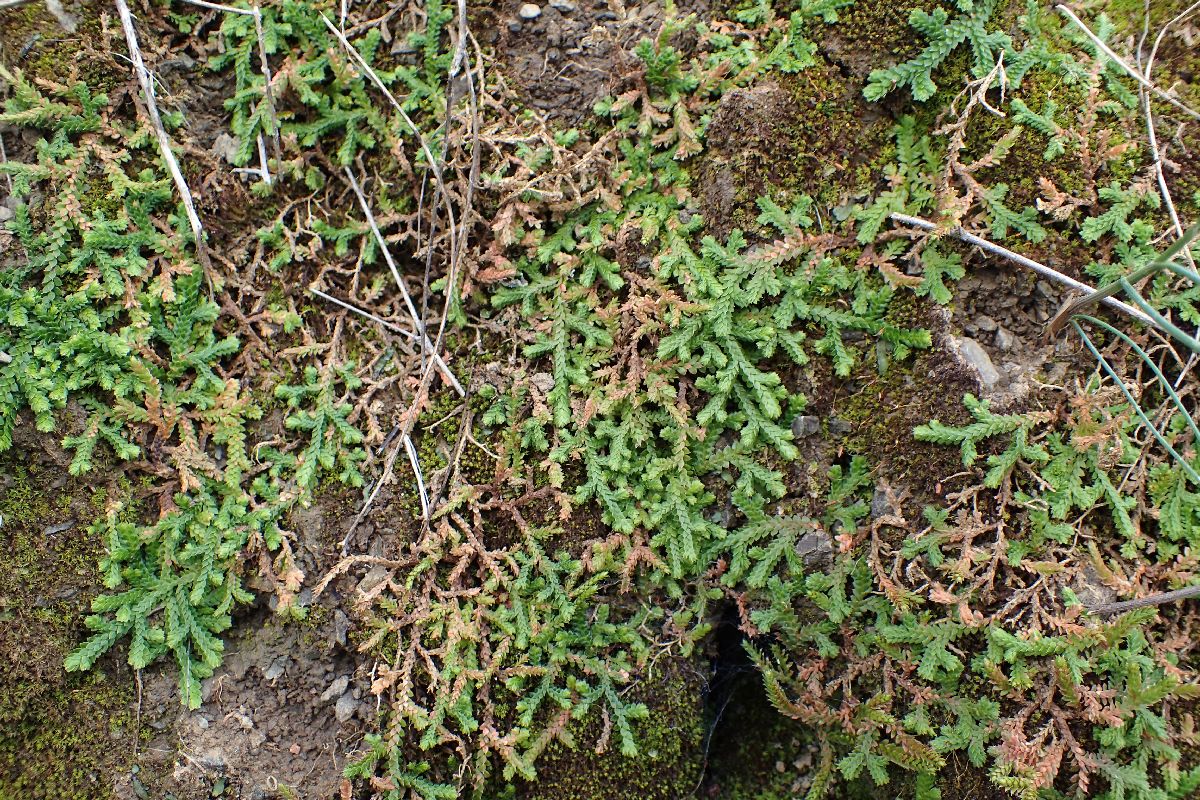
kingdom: Plantae
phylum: Tracheophyta
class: Lycopodiopsida
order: Selaginellales
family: Selaginellaceae
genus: Selaginella
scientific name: Selaginella denticulata
